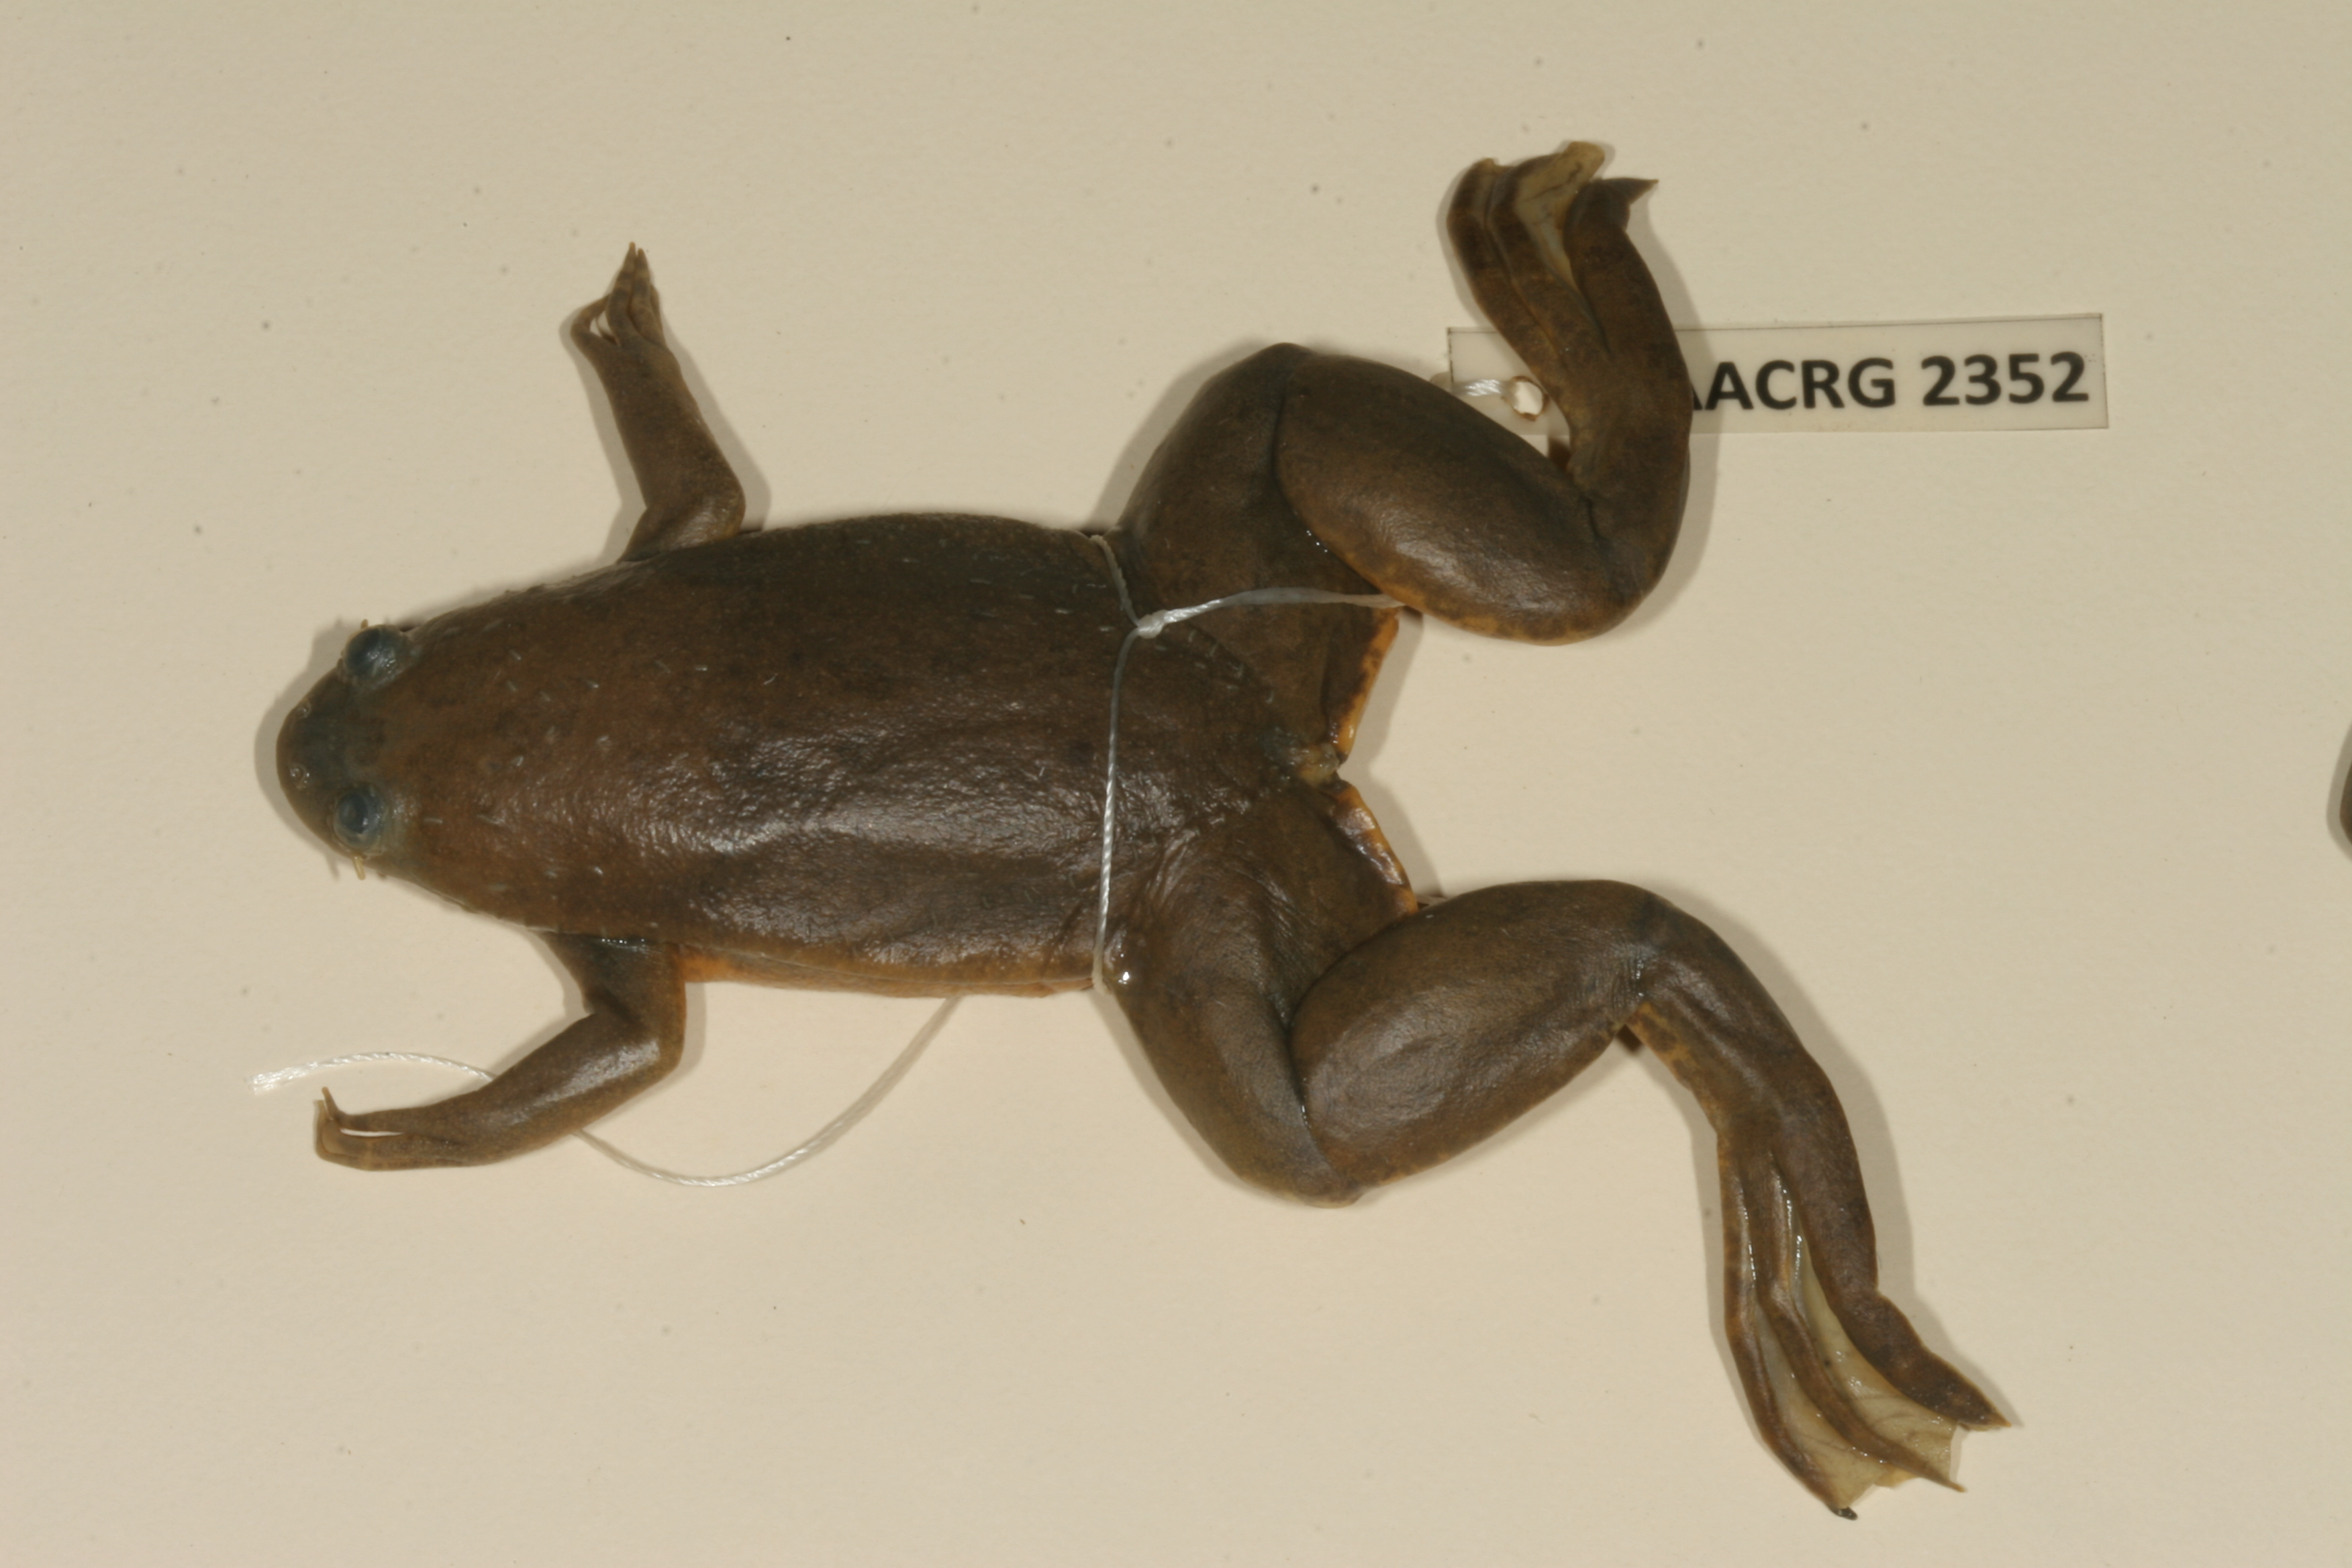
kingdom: Animalia
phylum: Chordata
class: Amphibia
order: Anura
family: Pipidae
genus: Xenopus
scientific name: Xenopus muelleri
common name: Muller's clawed frog
